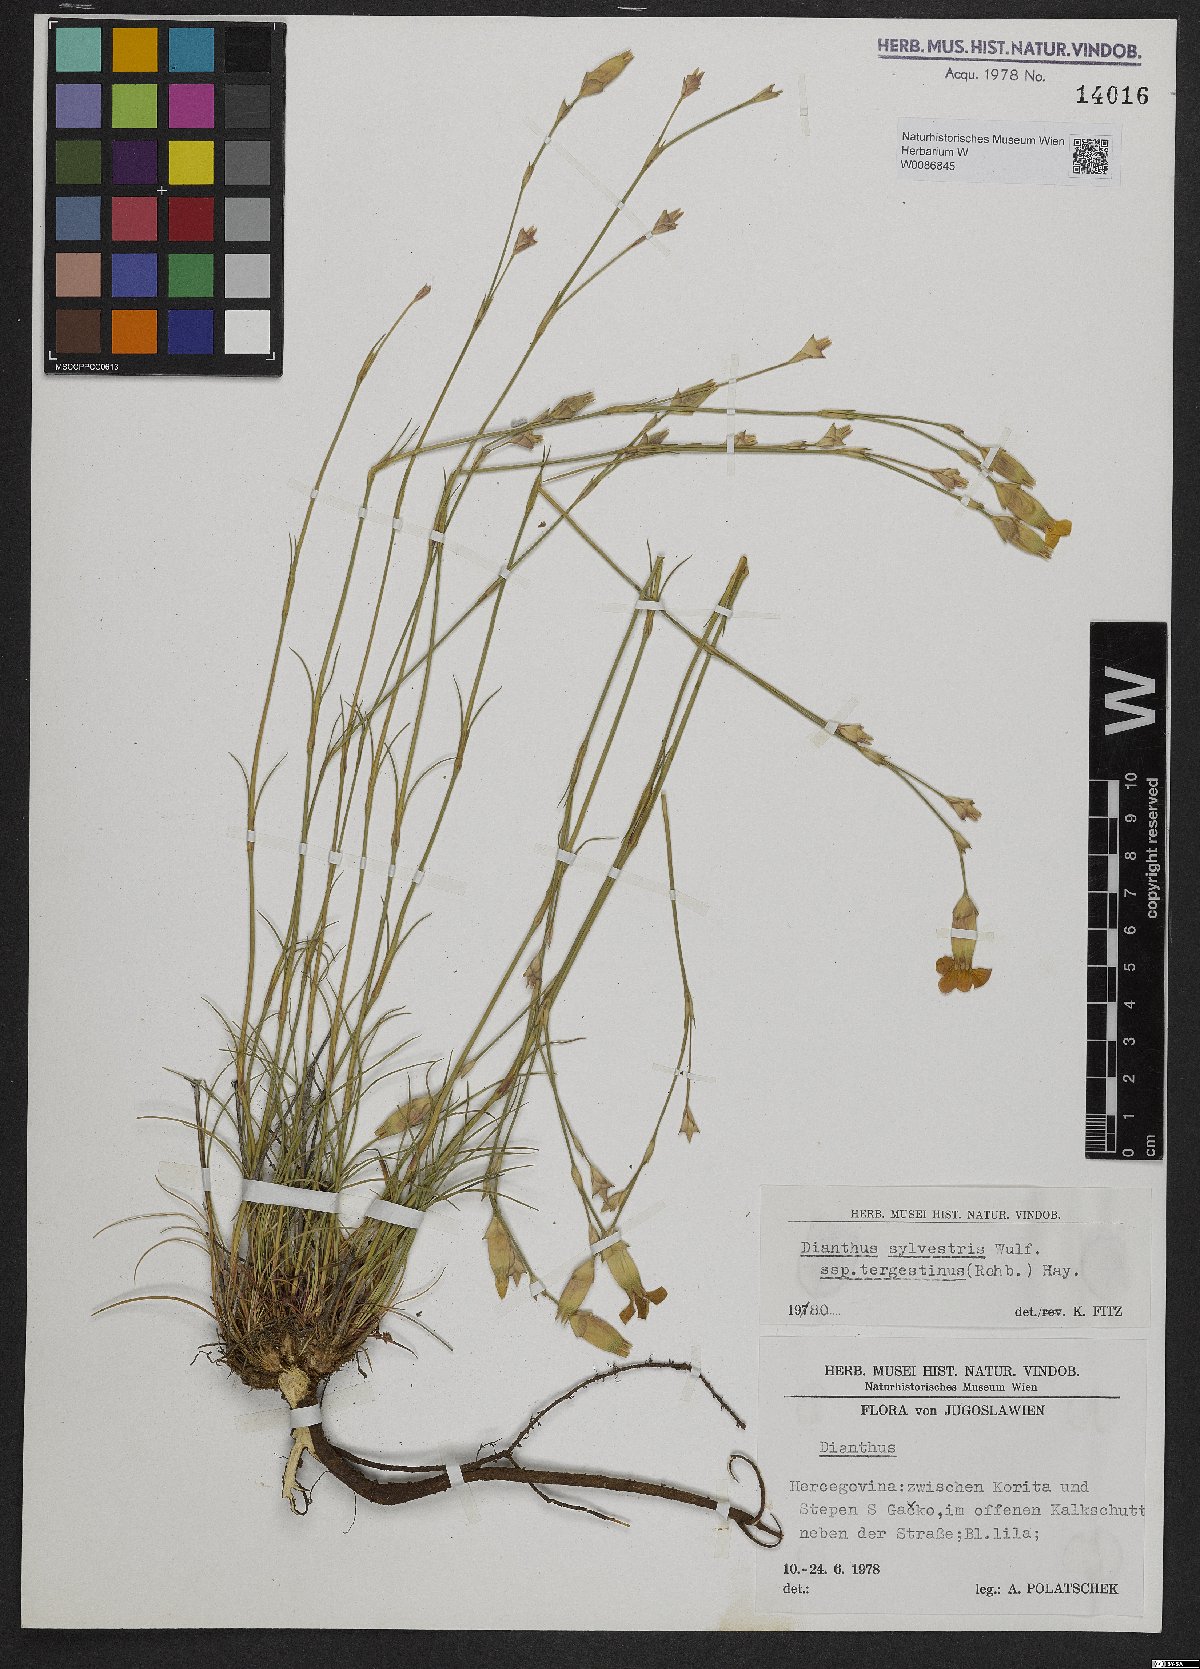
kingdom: Plantae
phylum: Tracheophyta
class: Magnoliopsida
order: Caryophyllales
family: Caryophyllaceae
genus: Dianthus
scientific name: Dianthus sylvestris
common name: Wood pink
